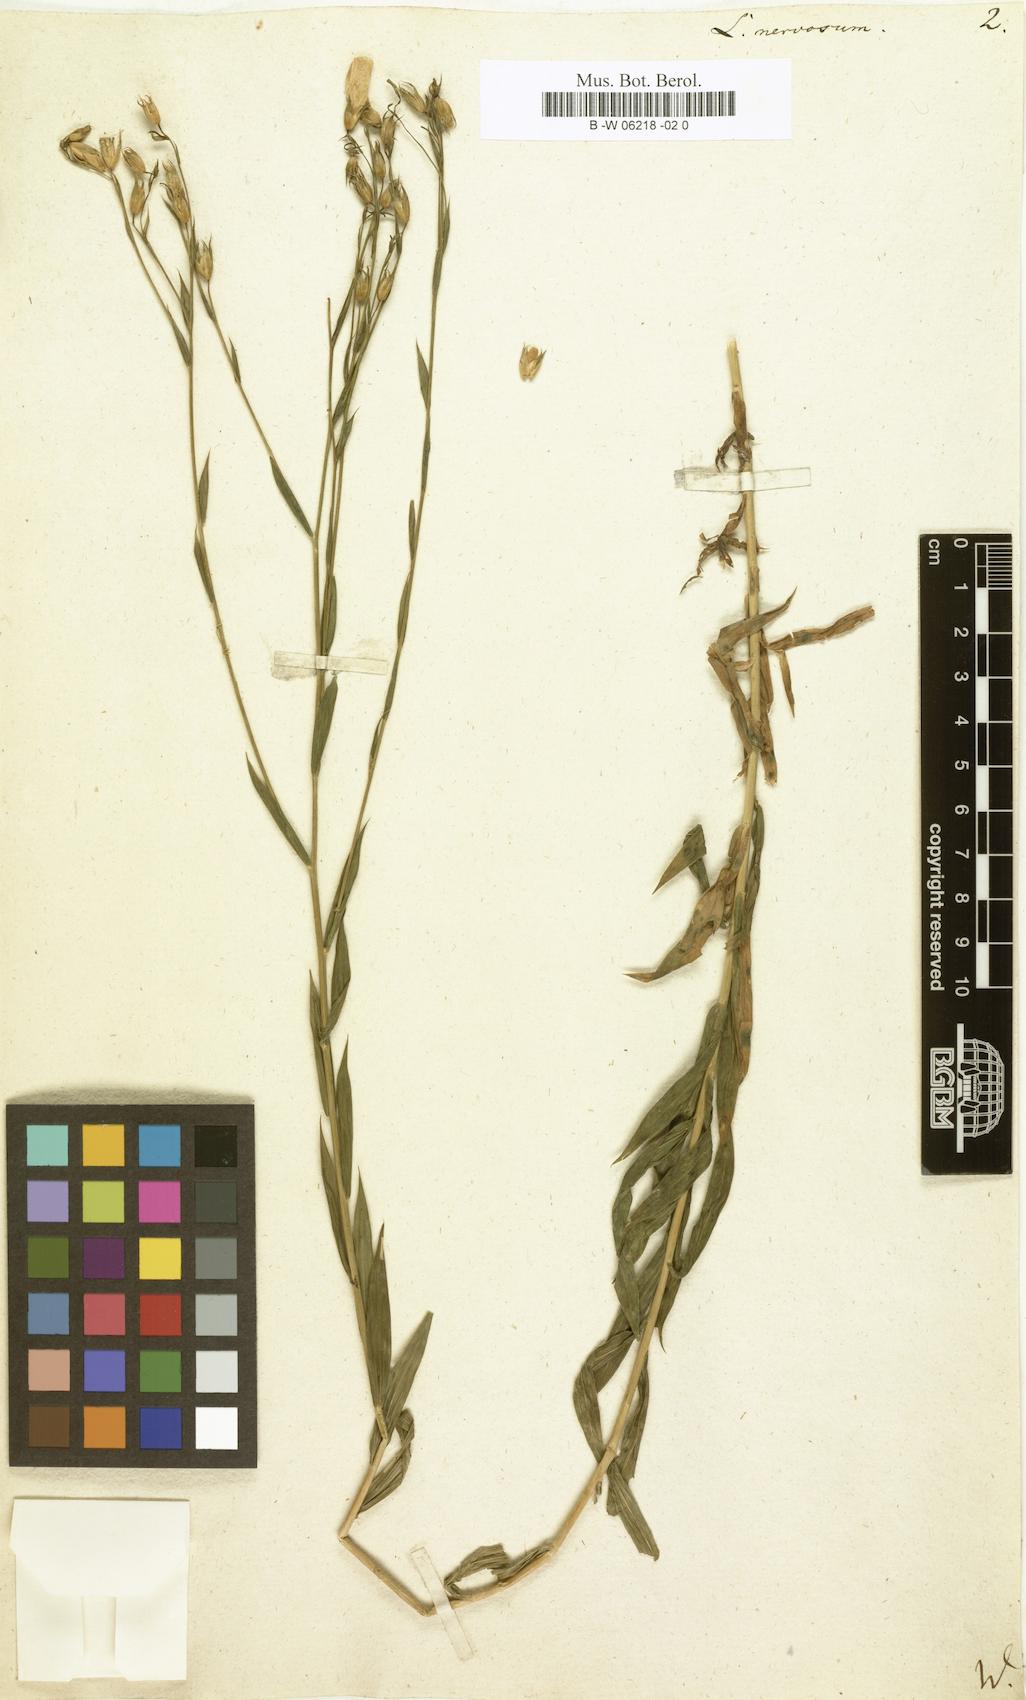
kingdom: Plantae
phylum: Tracheophyta
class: Magnoliopsida
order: Malpighiales
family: Linaceae
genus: Linum
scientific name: Linum nervosum
